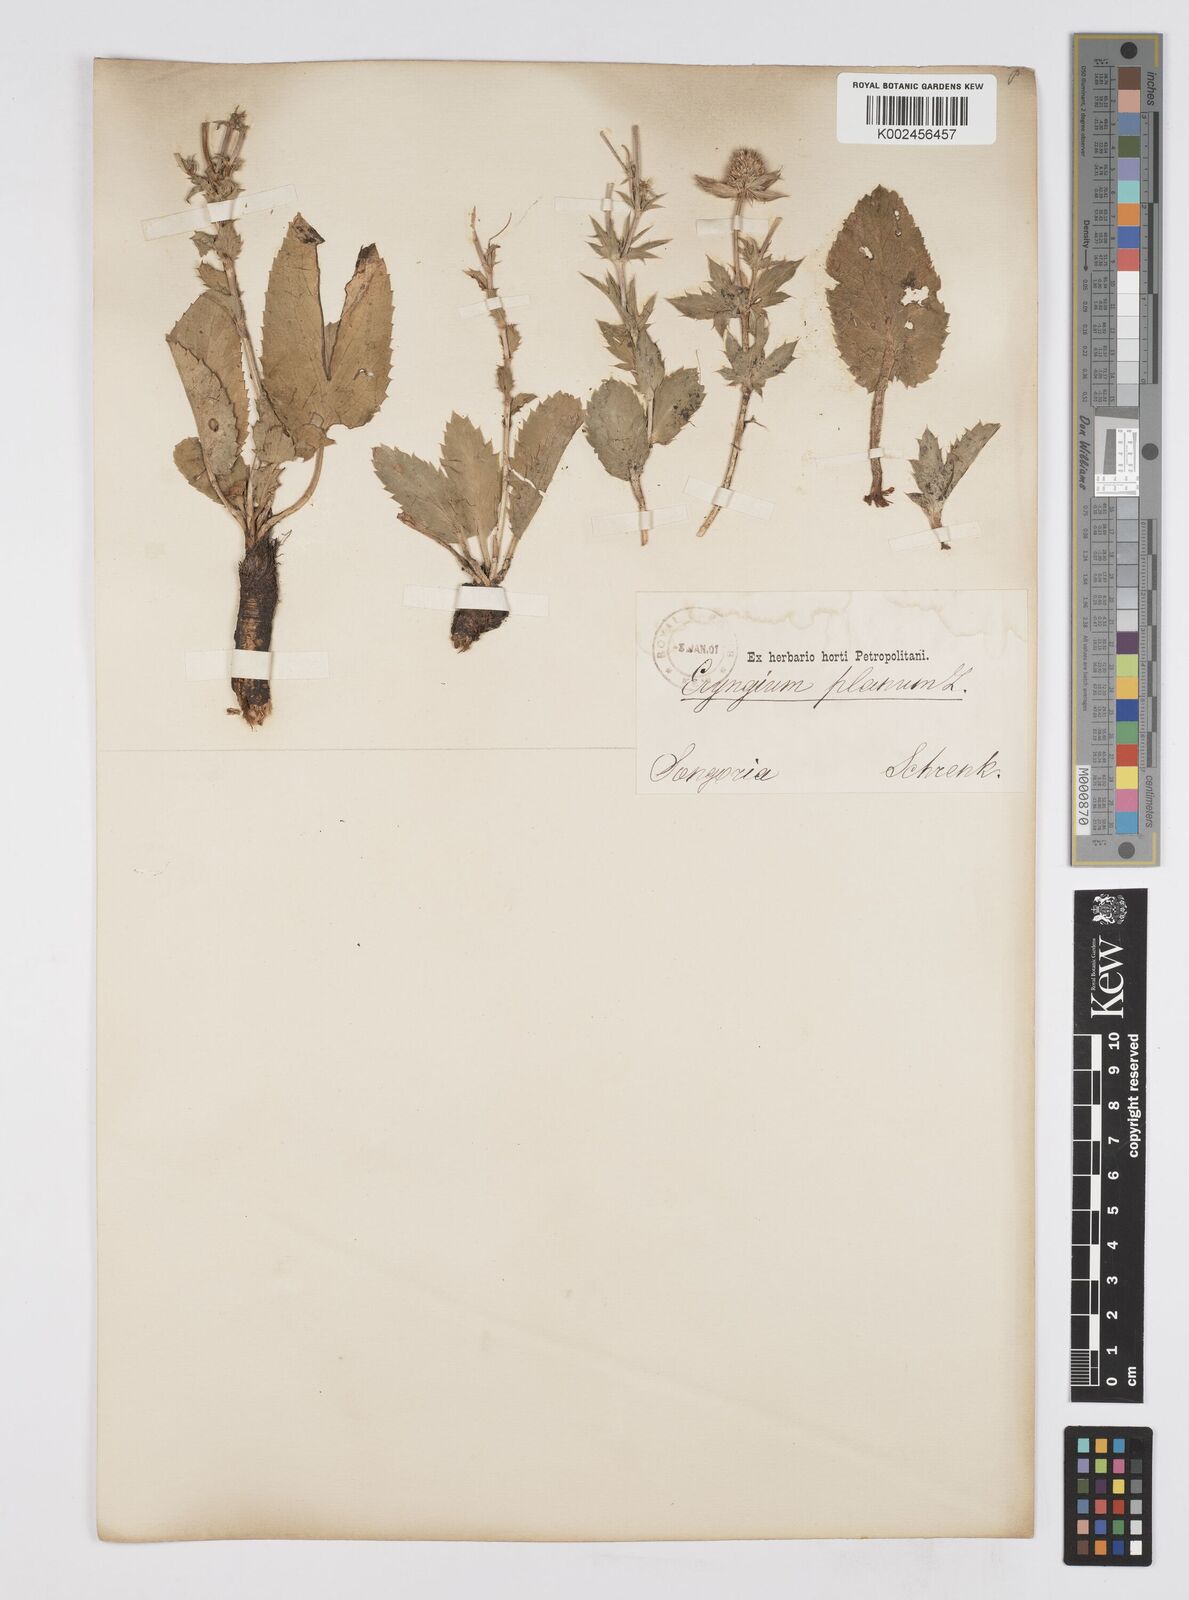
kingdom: Plantae
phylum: Tracheophyta
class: Magnoliopsida
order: Apiales
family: Apiaceae
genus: Eryngium
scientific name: Eryngium planum
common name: Blue eryngo
